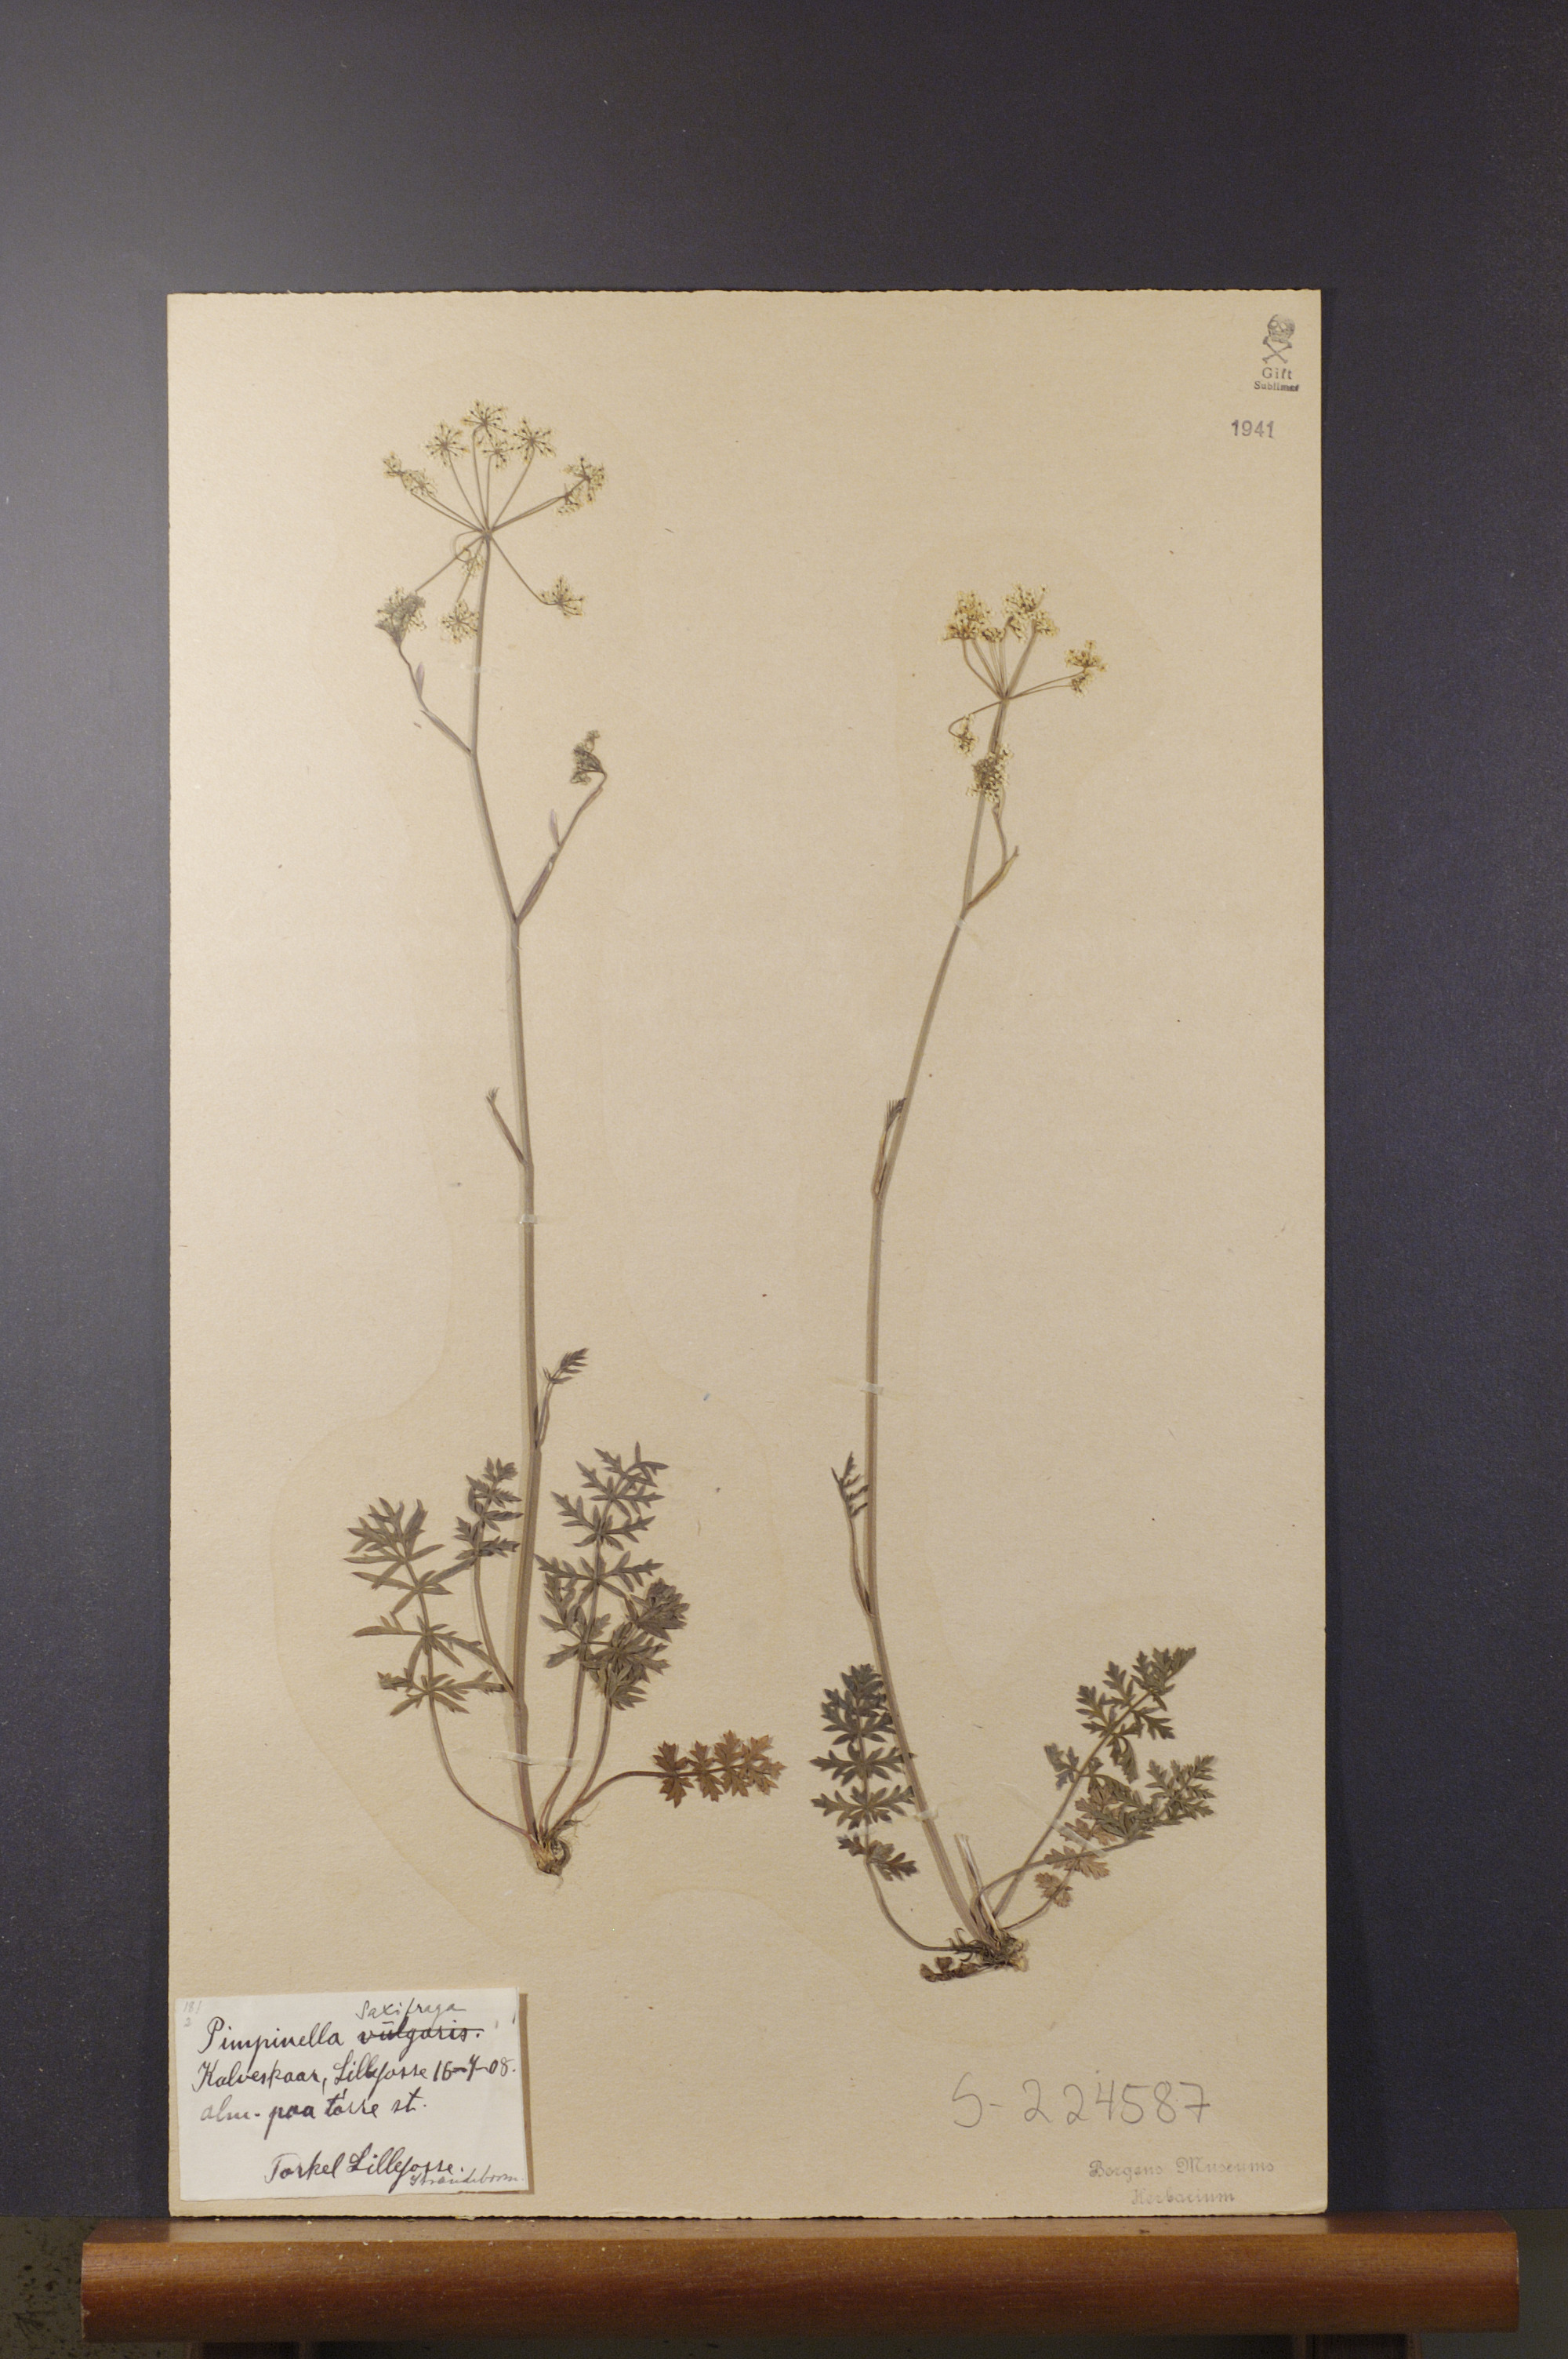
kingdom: Plantae
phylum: Tracheophyta
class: Magnoliopsida
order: Apiales
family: Apiaceae
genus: Pimpinella
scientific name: Pimpinella saxifraga
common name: Burnet-saxifrage
